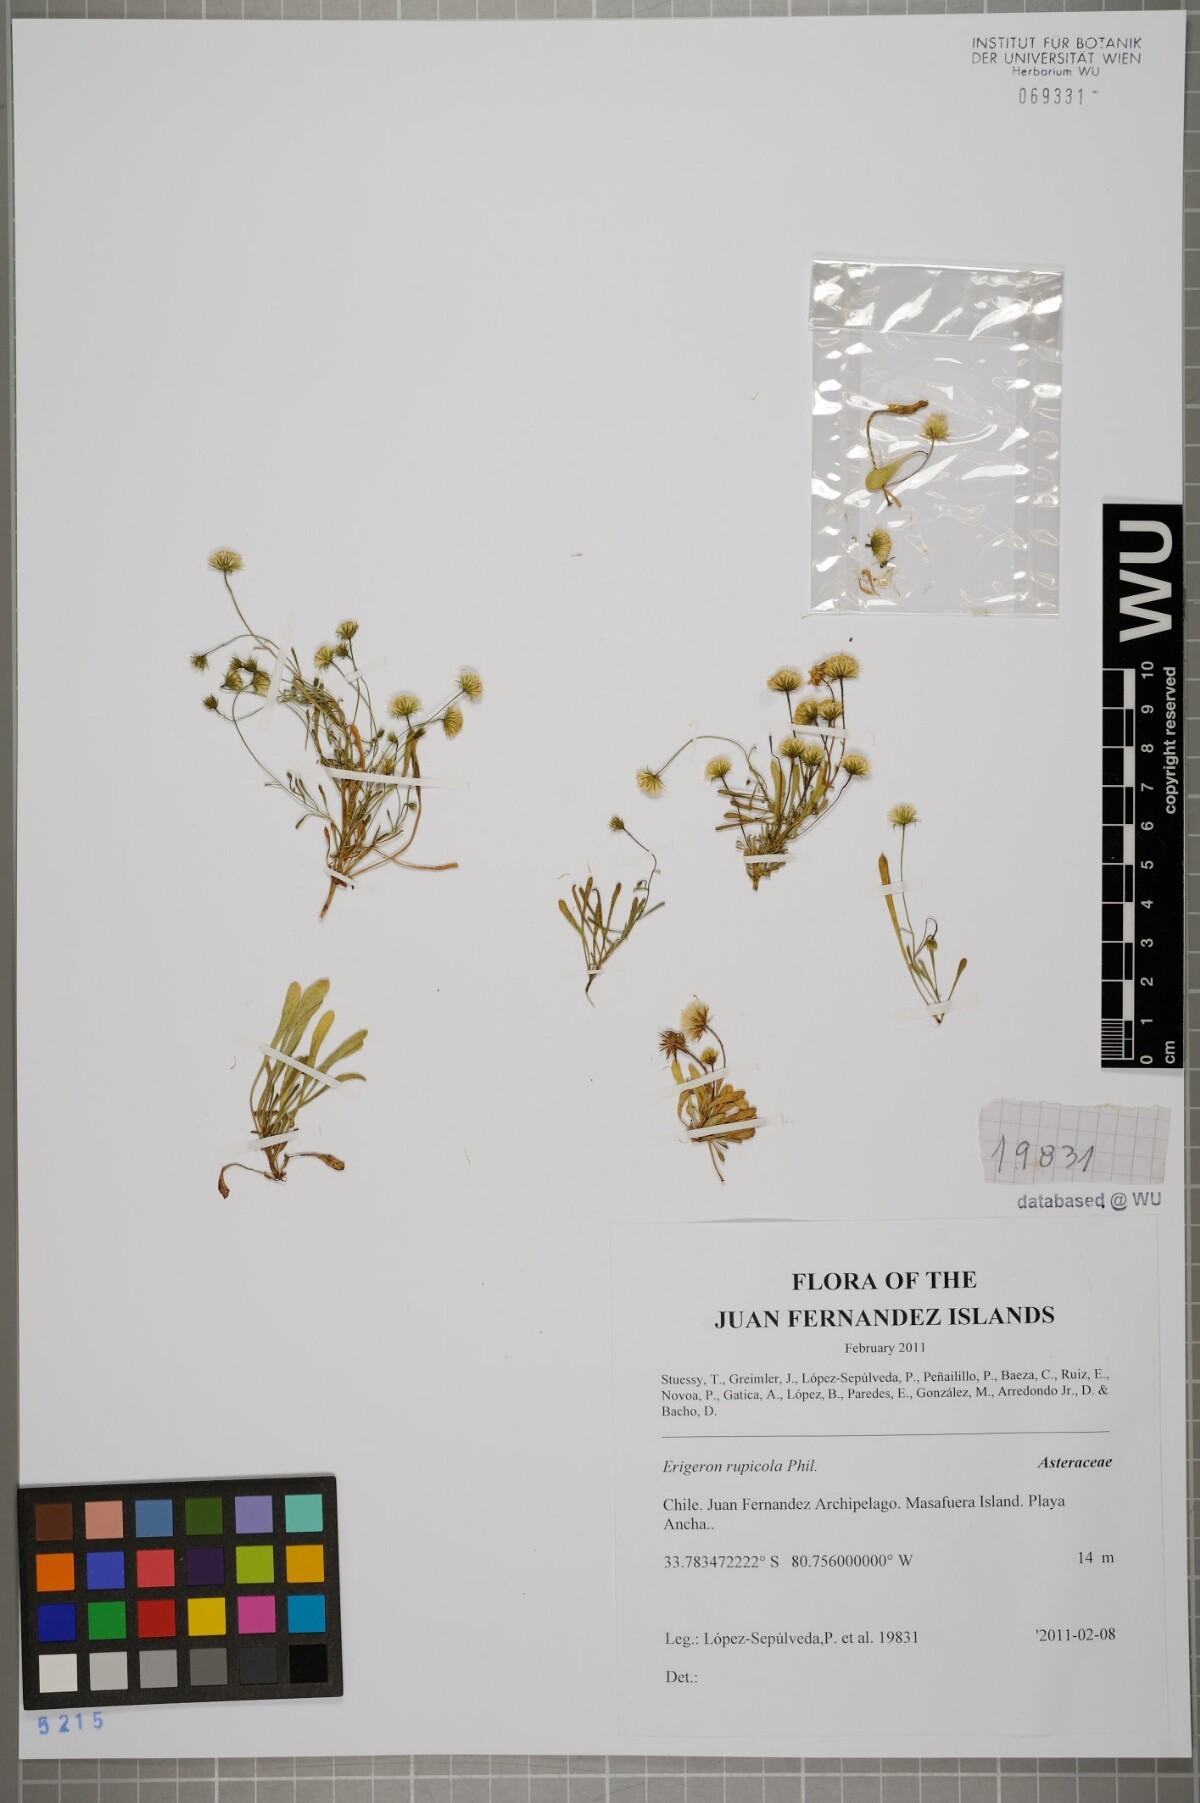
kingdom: Plantae
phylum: Tracheophyta
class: Magnoliopsida
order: Asterales
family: Asteraceae
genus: Erigeron
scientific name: Erigeron rupicola
